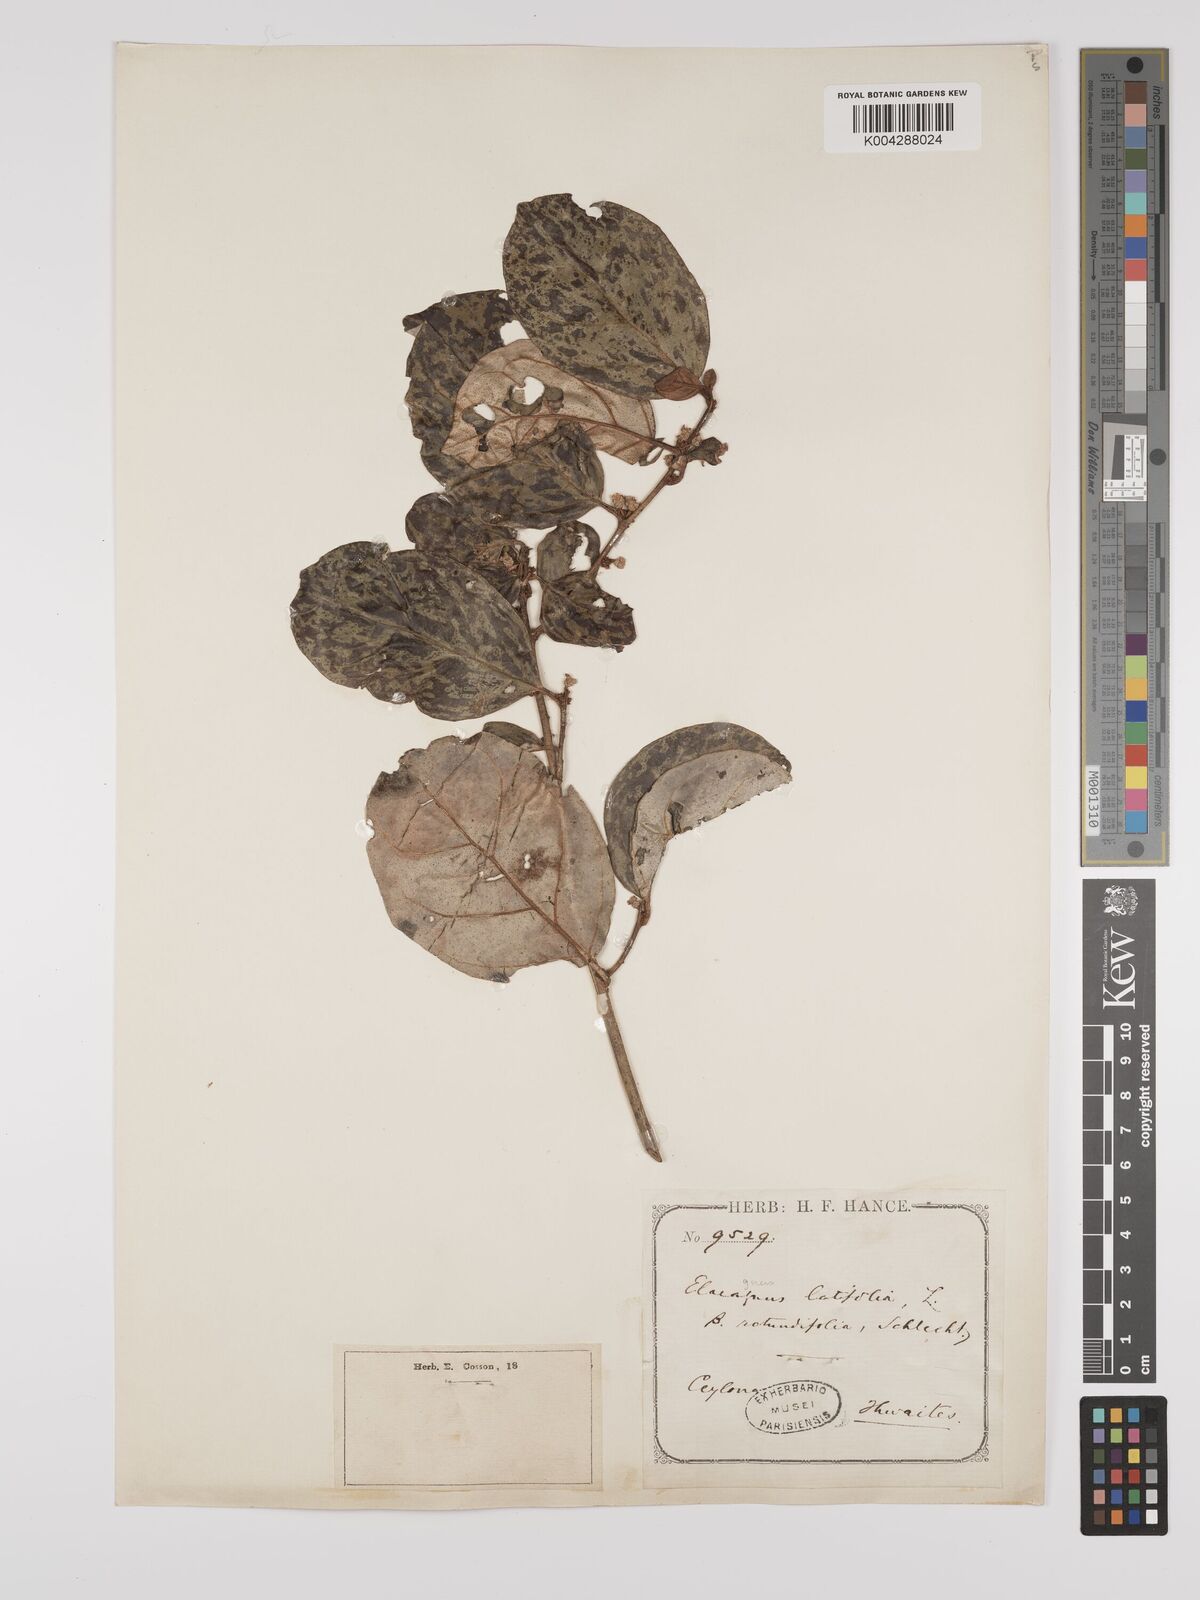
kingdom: Plantae
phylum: Tracheophyta
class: Magnoliopsida
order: Rosales
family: Elaeagnaceae
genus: Elaeagnus
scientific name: Elaeagnus latifolia
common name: Oleaster
